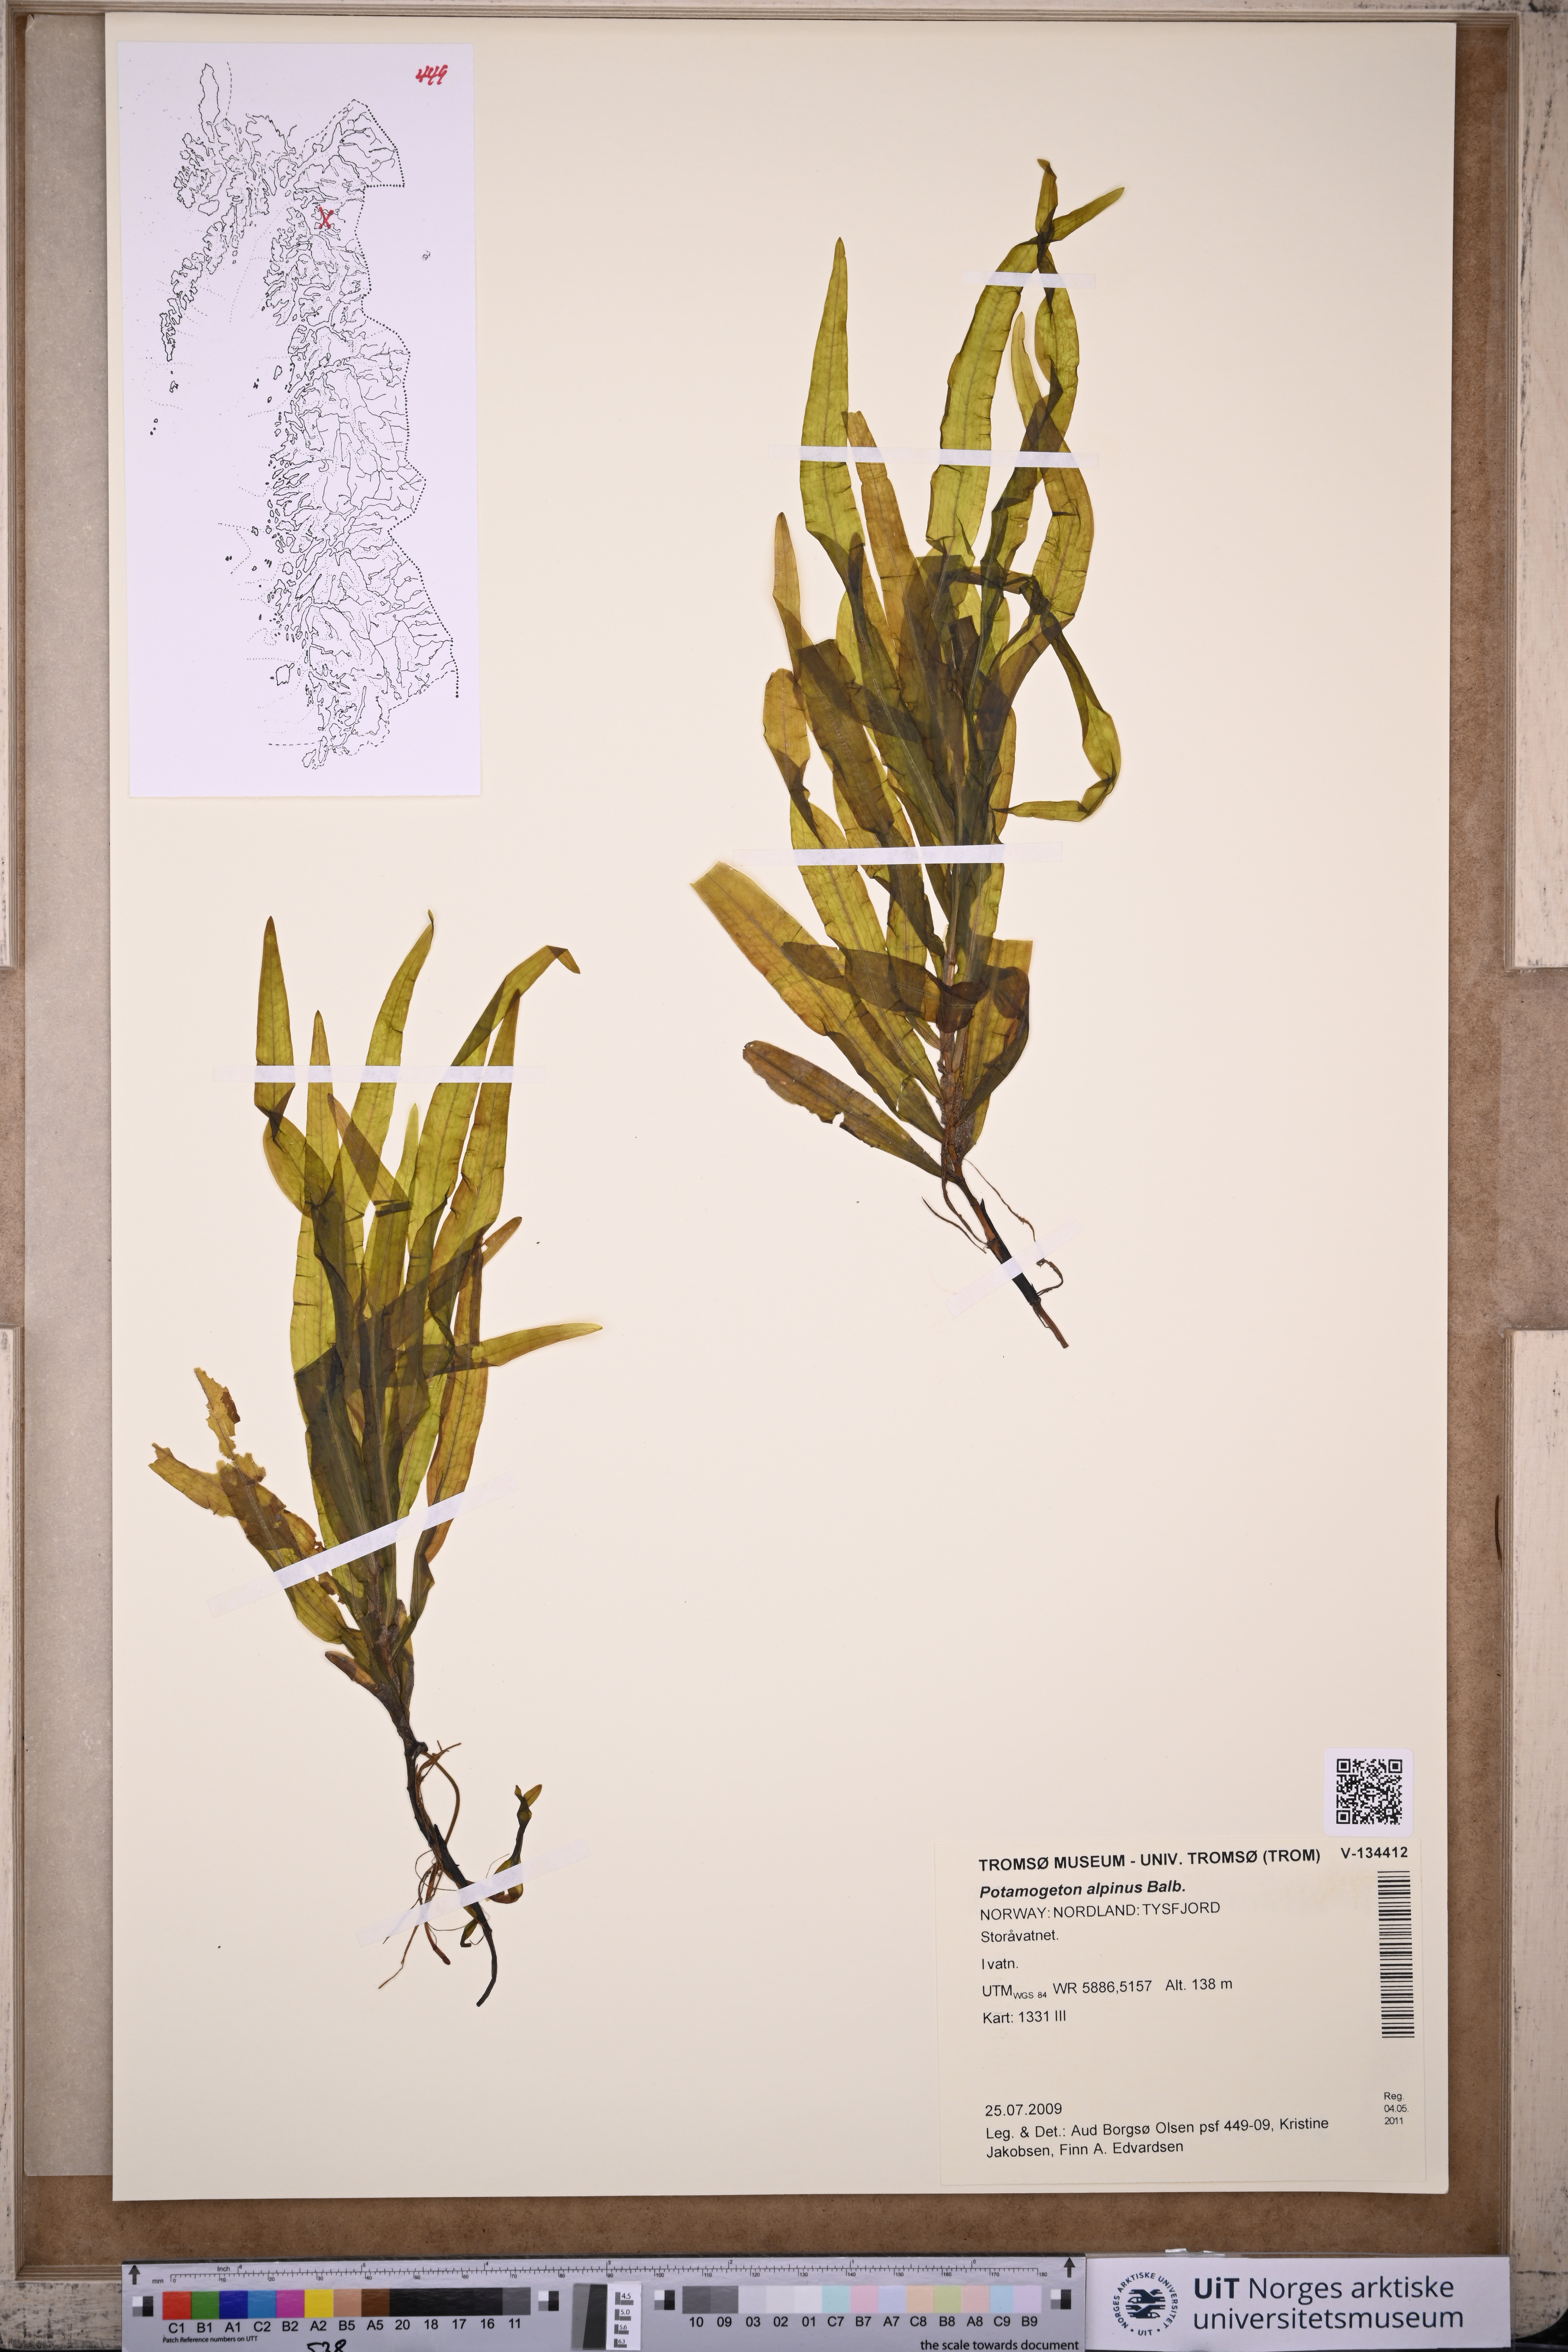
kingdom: Plantae
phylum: Tracheophyta
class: Liliopsida
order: Alismatales
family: Potamogetonaceae
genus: Potamogeton
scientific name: Potamogeton alpinus
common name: Red pondweed
